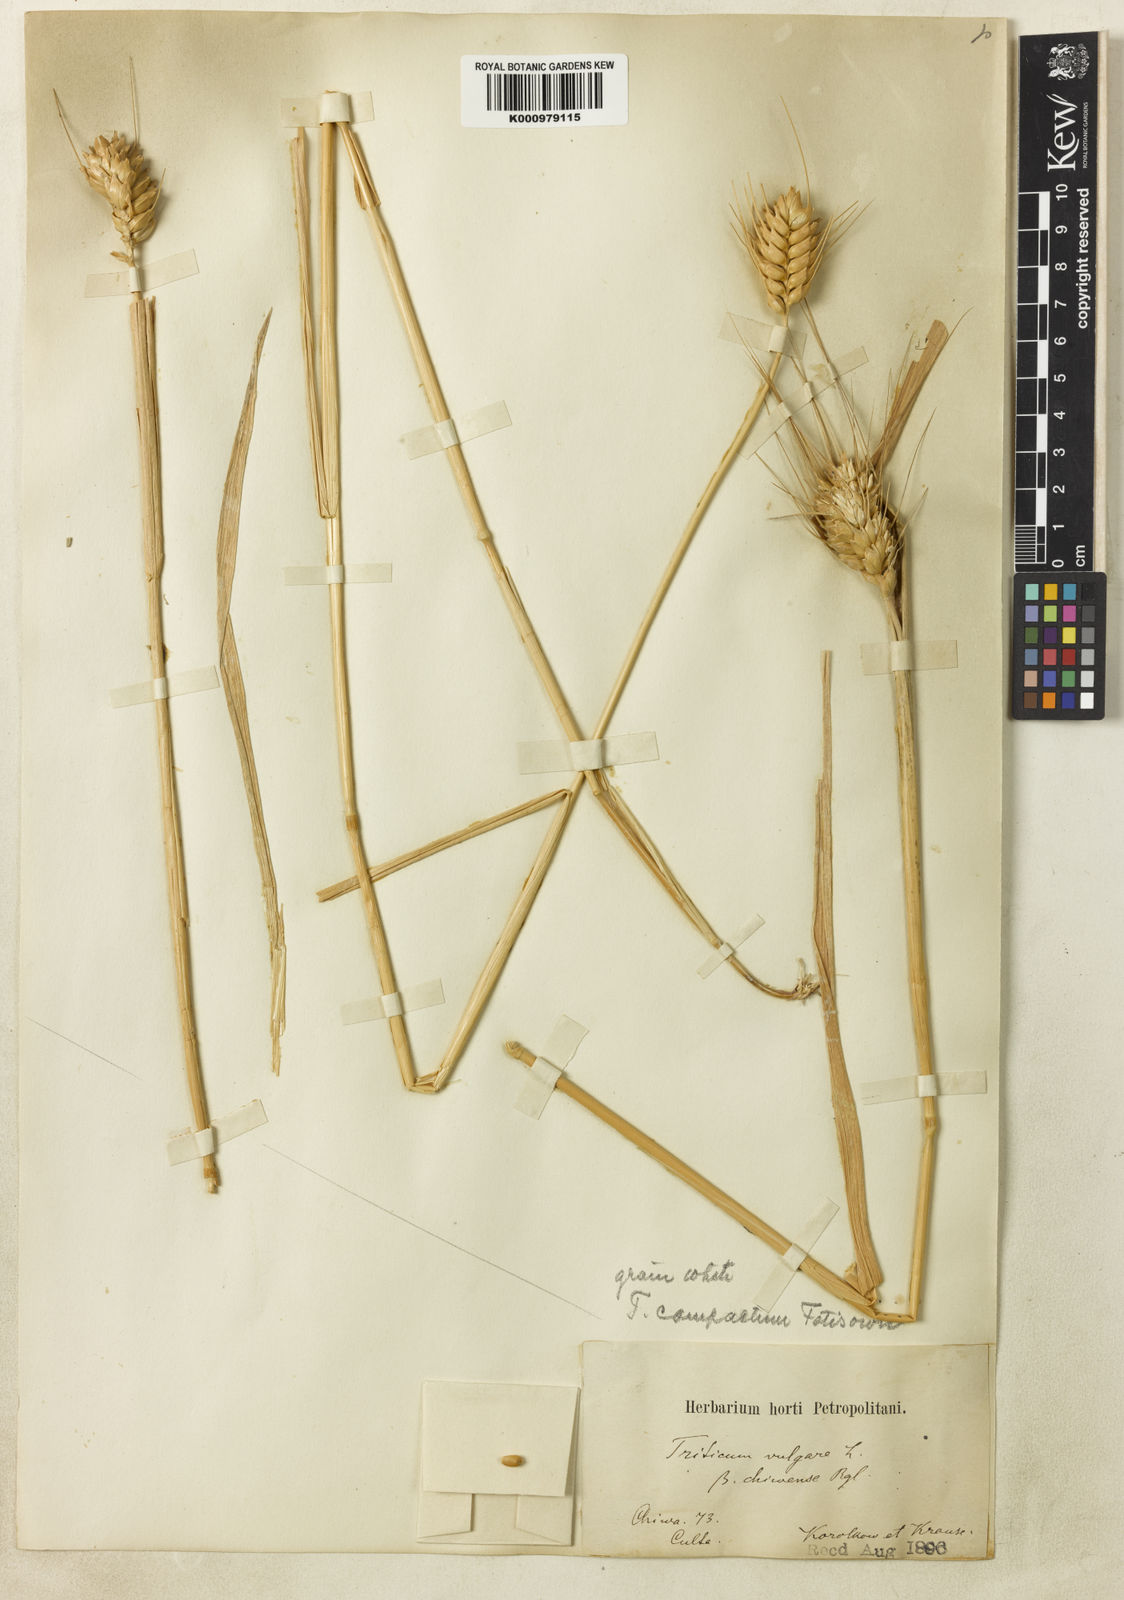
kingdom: Plantae
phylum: Tracheophyta
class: Liliopsida
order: Poales
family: Poaceae
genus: Triticum
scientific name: Triticum aestivum
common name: Common wheat
